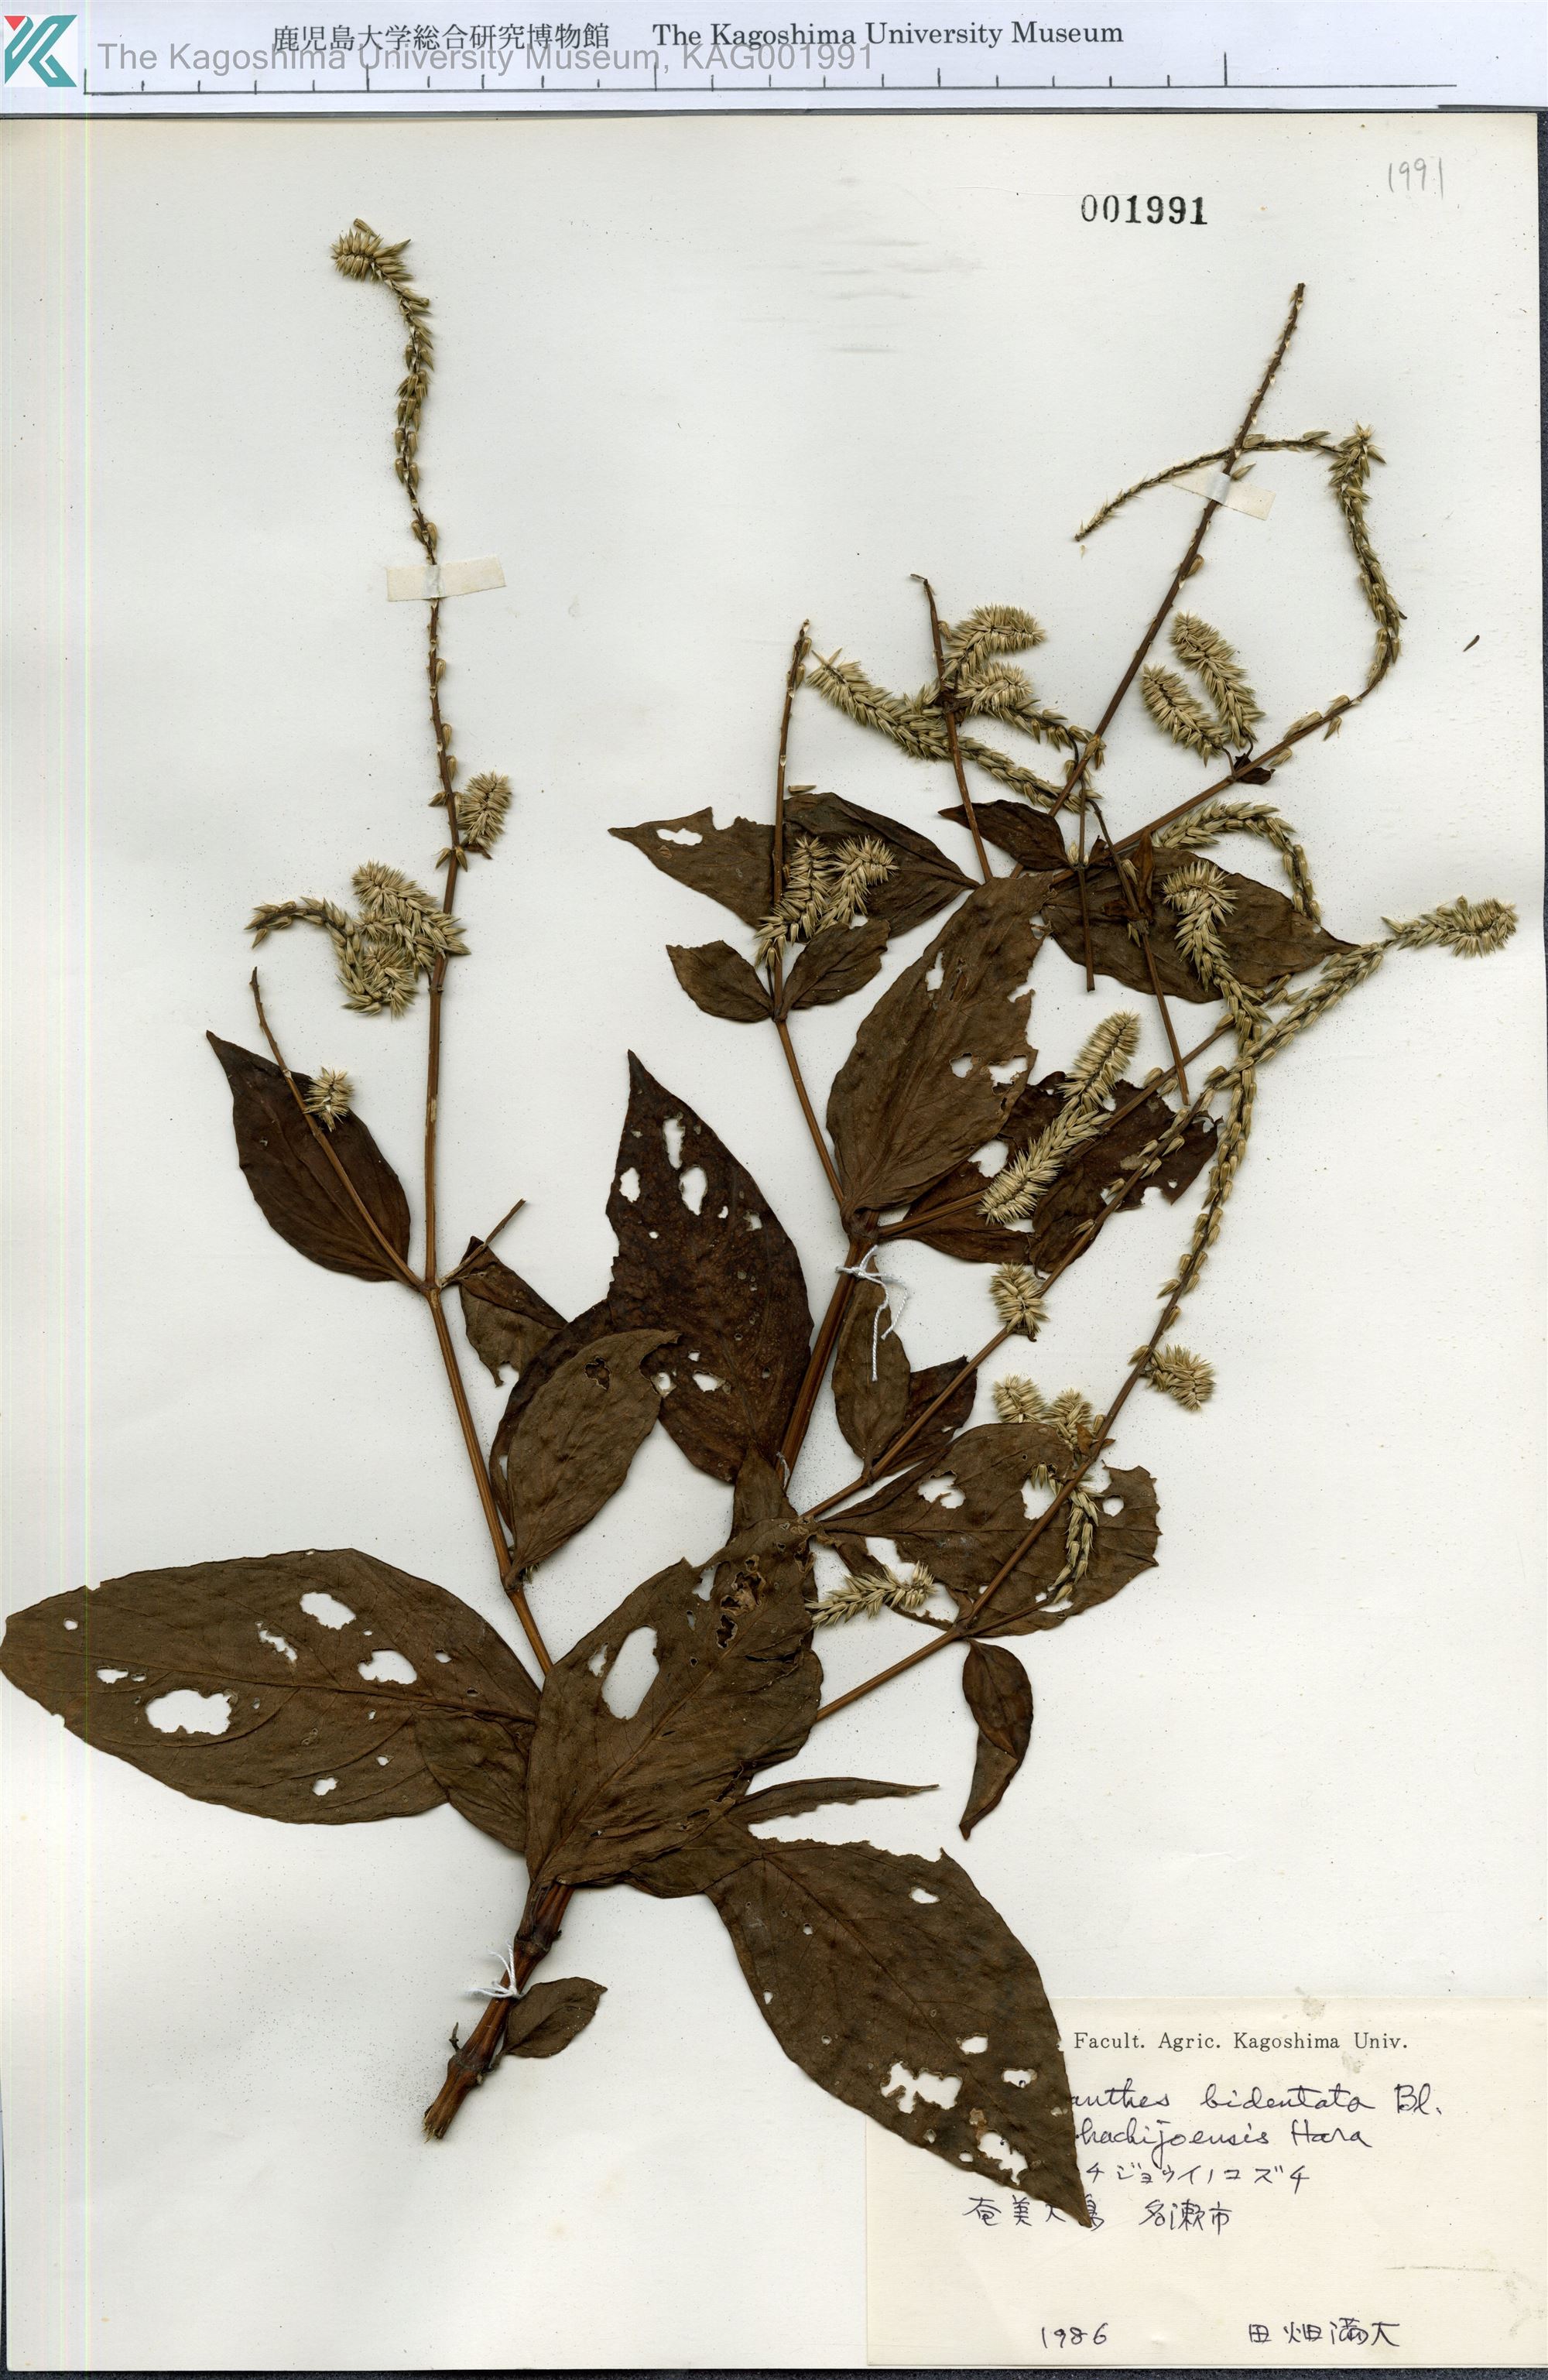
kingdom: Plantae
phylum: Tracheophyta
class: Magnoliopsida
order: Caryophyllales
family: Amaranthaceae
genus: Achyranthes
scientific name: Achyranthes bidentata
